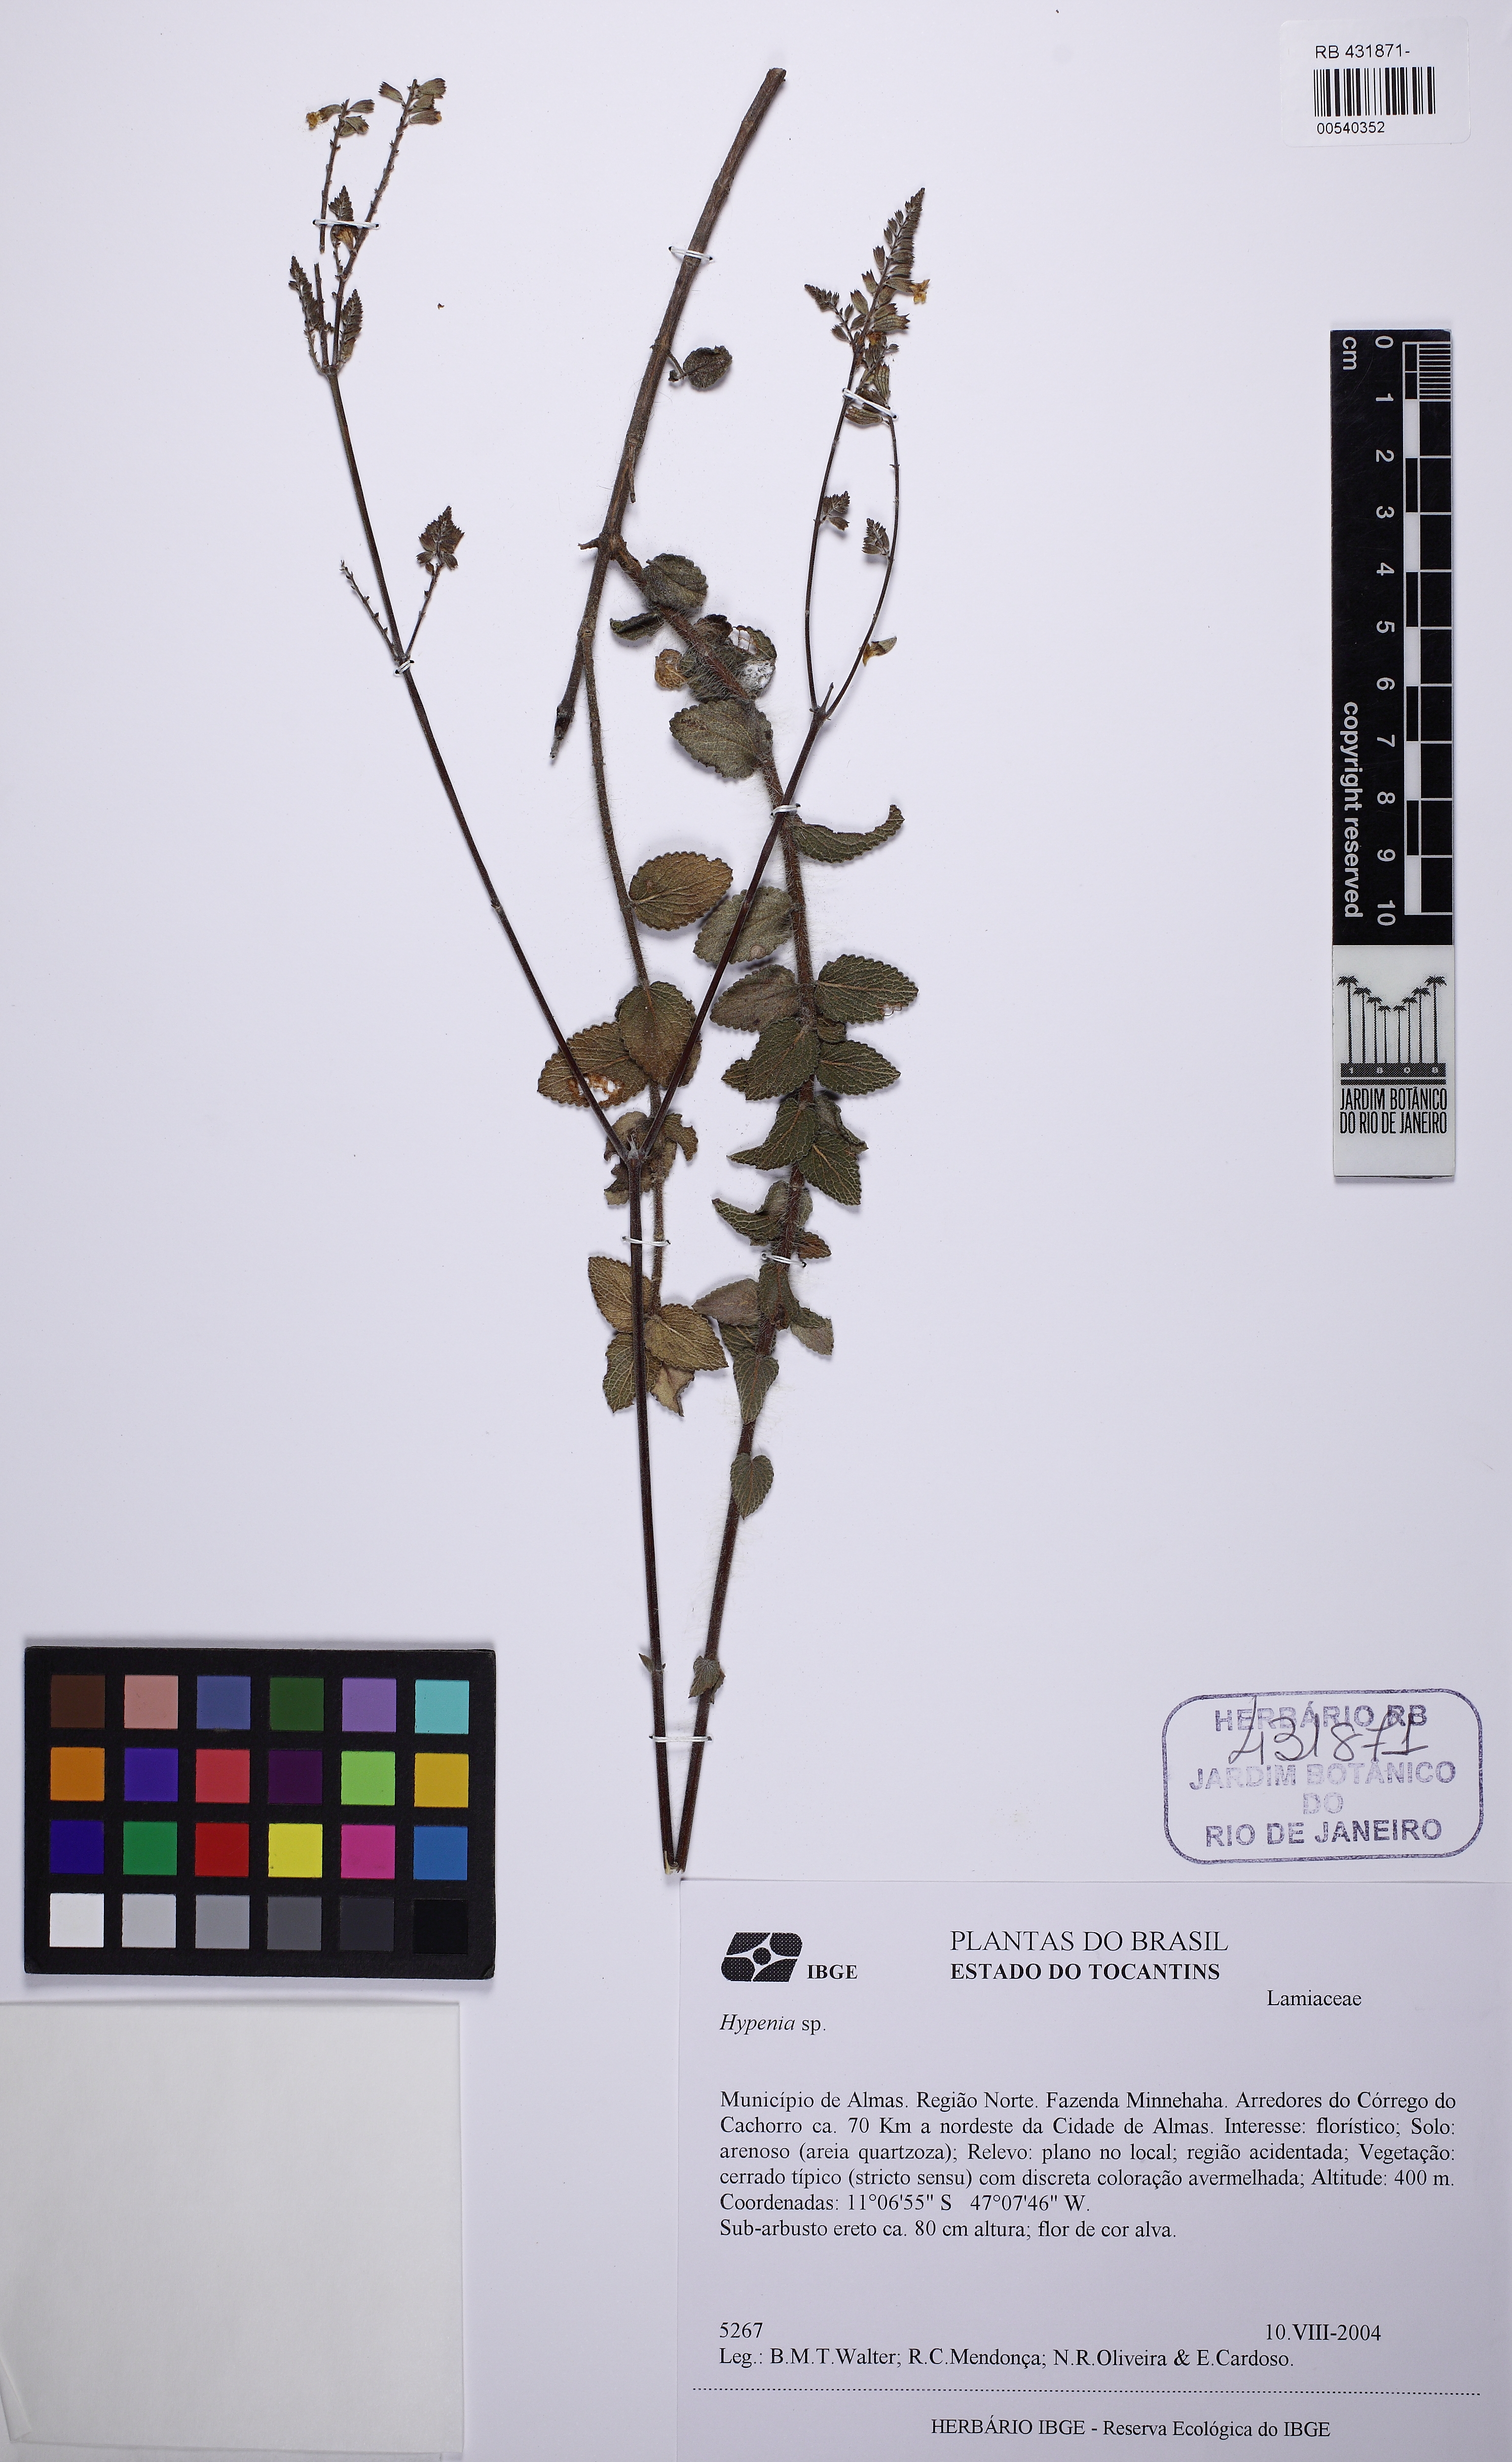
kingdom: Plantae
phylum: Tracheophyta
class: Magnoliopsida
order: Lamiales
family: Lamiaceae
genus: Hypenia
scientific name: Hypenia
